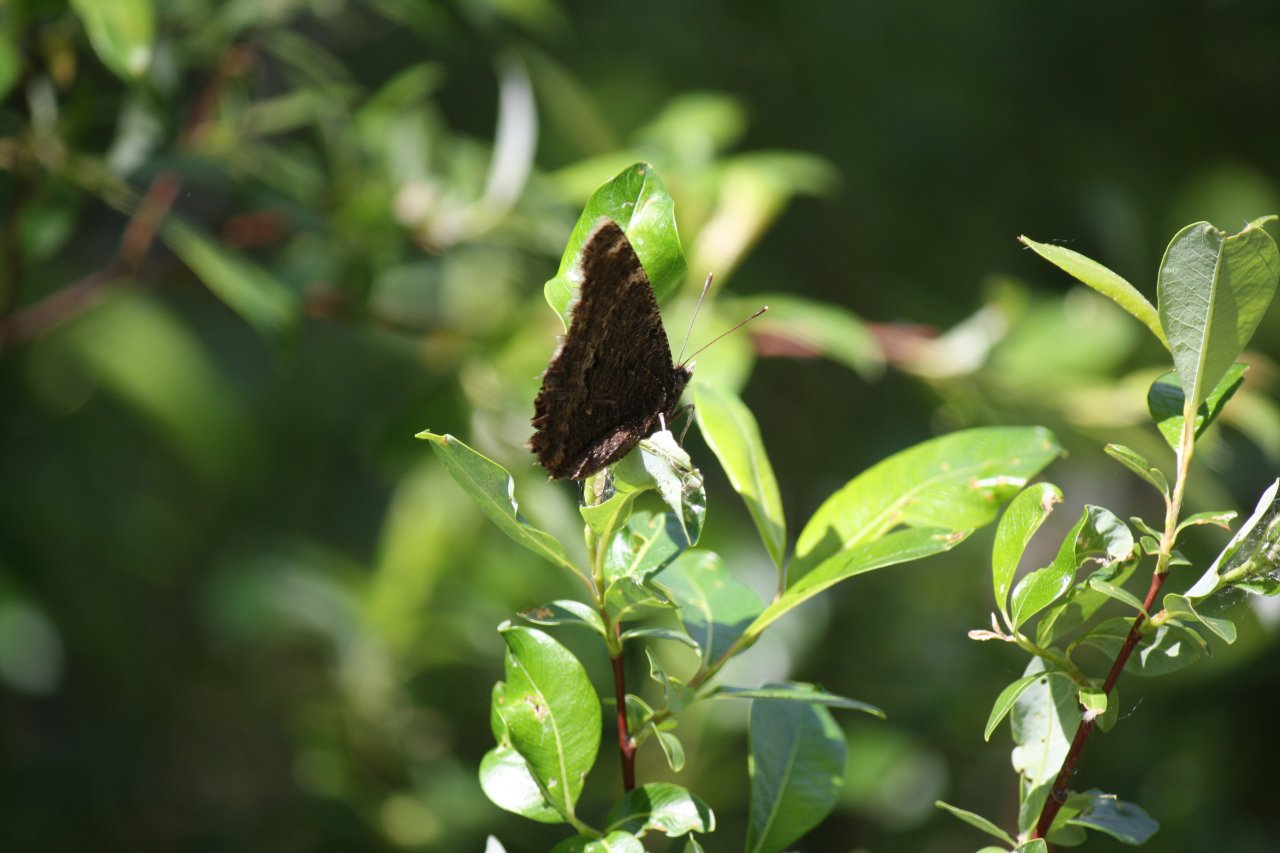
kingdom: Animalia
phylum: Arthropoda
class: Insecta
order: Lepidoptera
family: Nymphalidae
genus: Nymphalis
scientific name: Nymphalis antiopa
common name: Mourning Cloak
